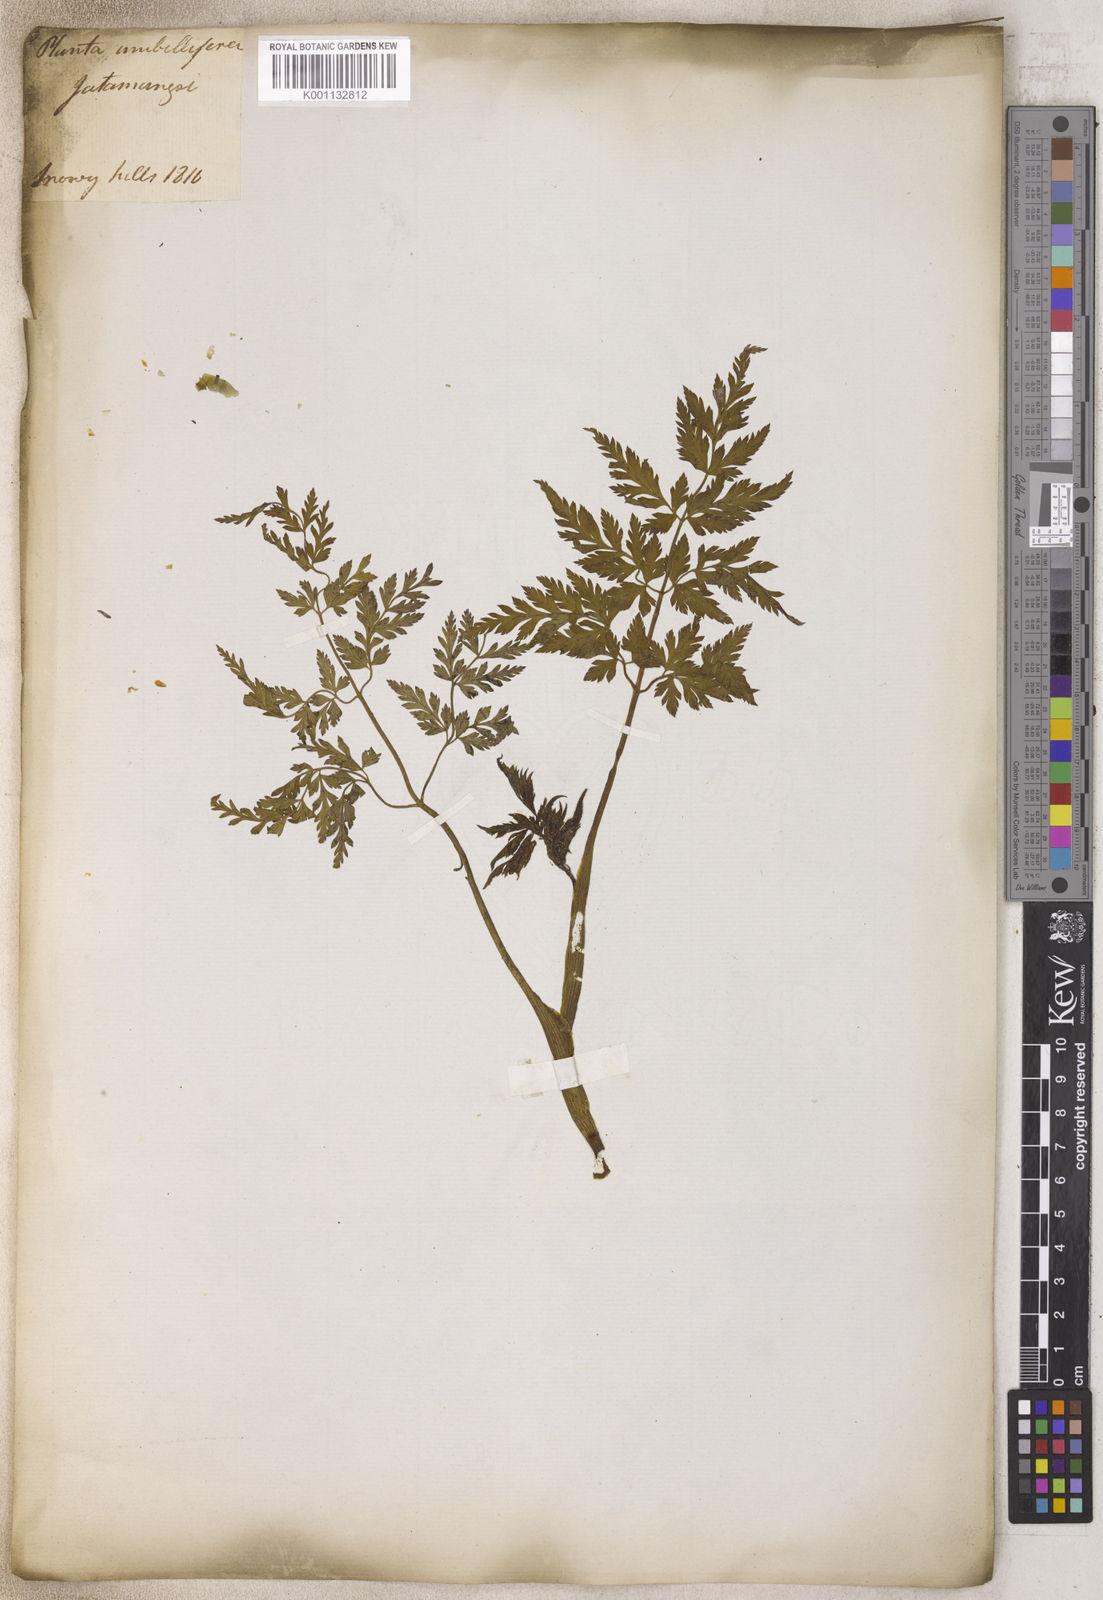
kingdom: Plantae
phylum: Tracheophyta
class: Magnoliopsida
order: Apiales
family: Apiaceae
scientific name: Apiaceae
